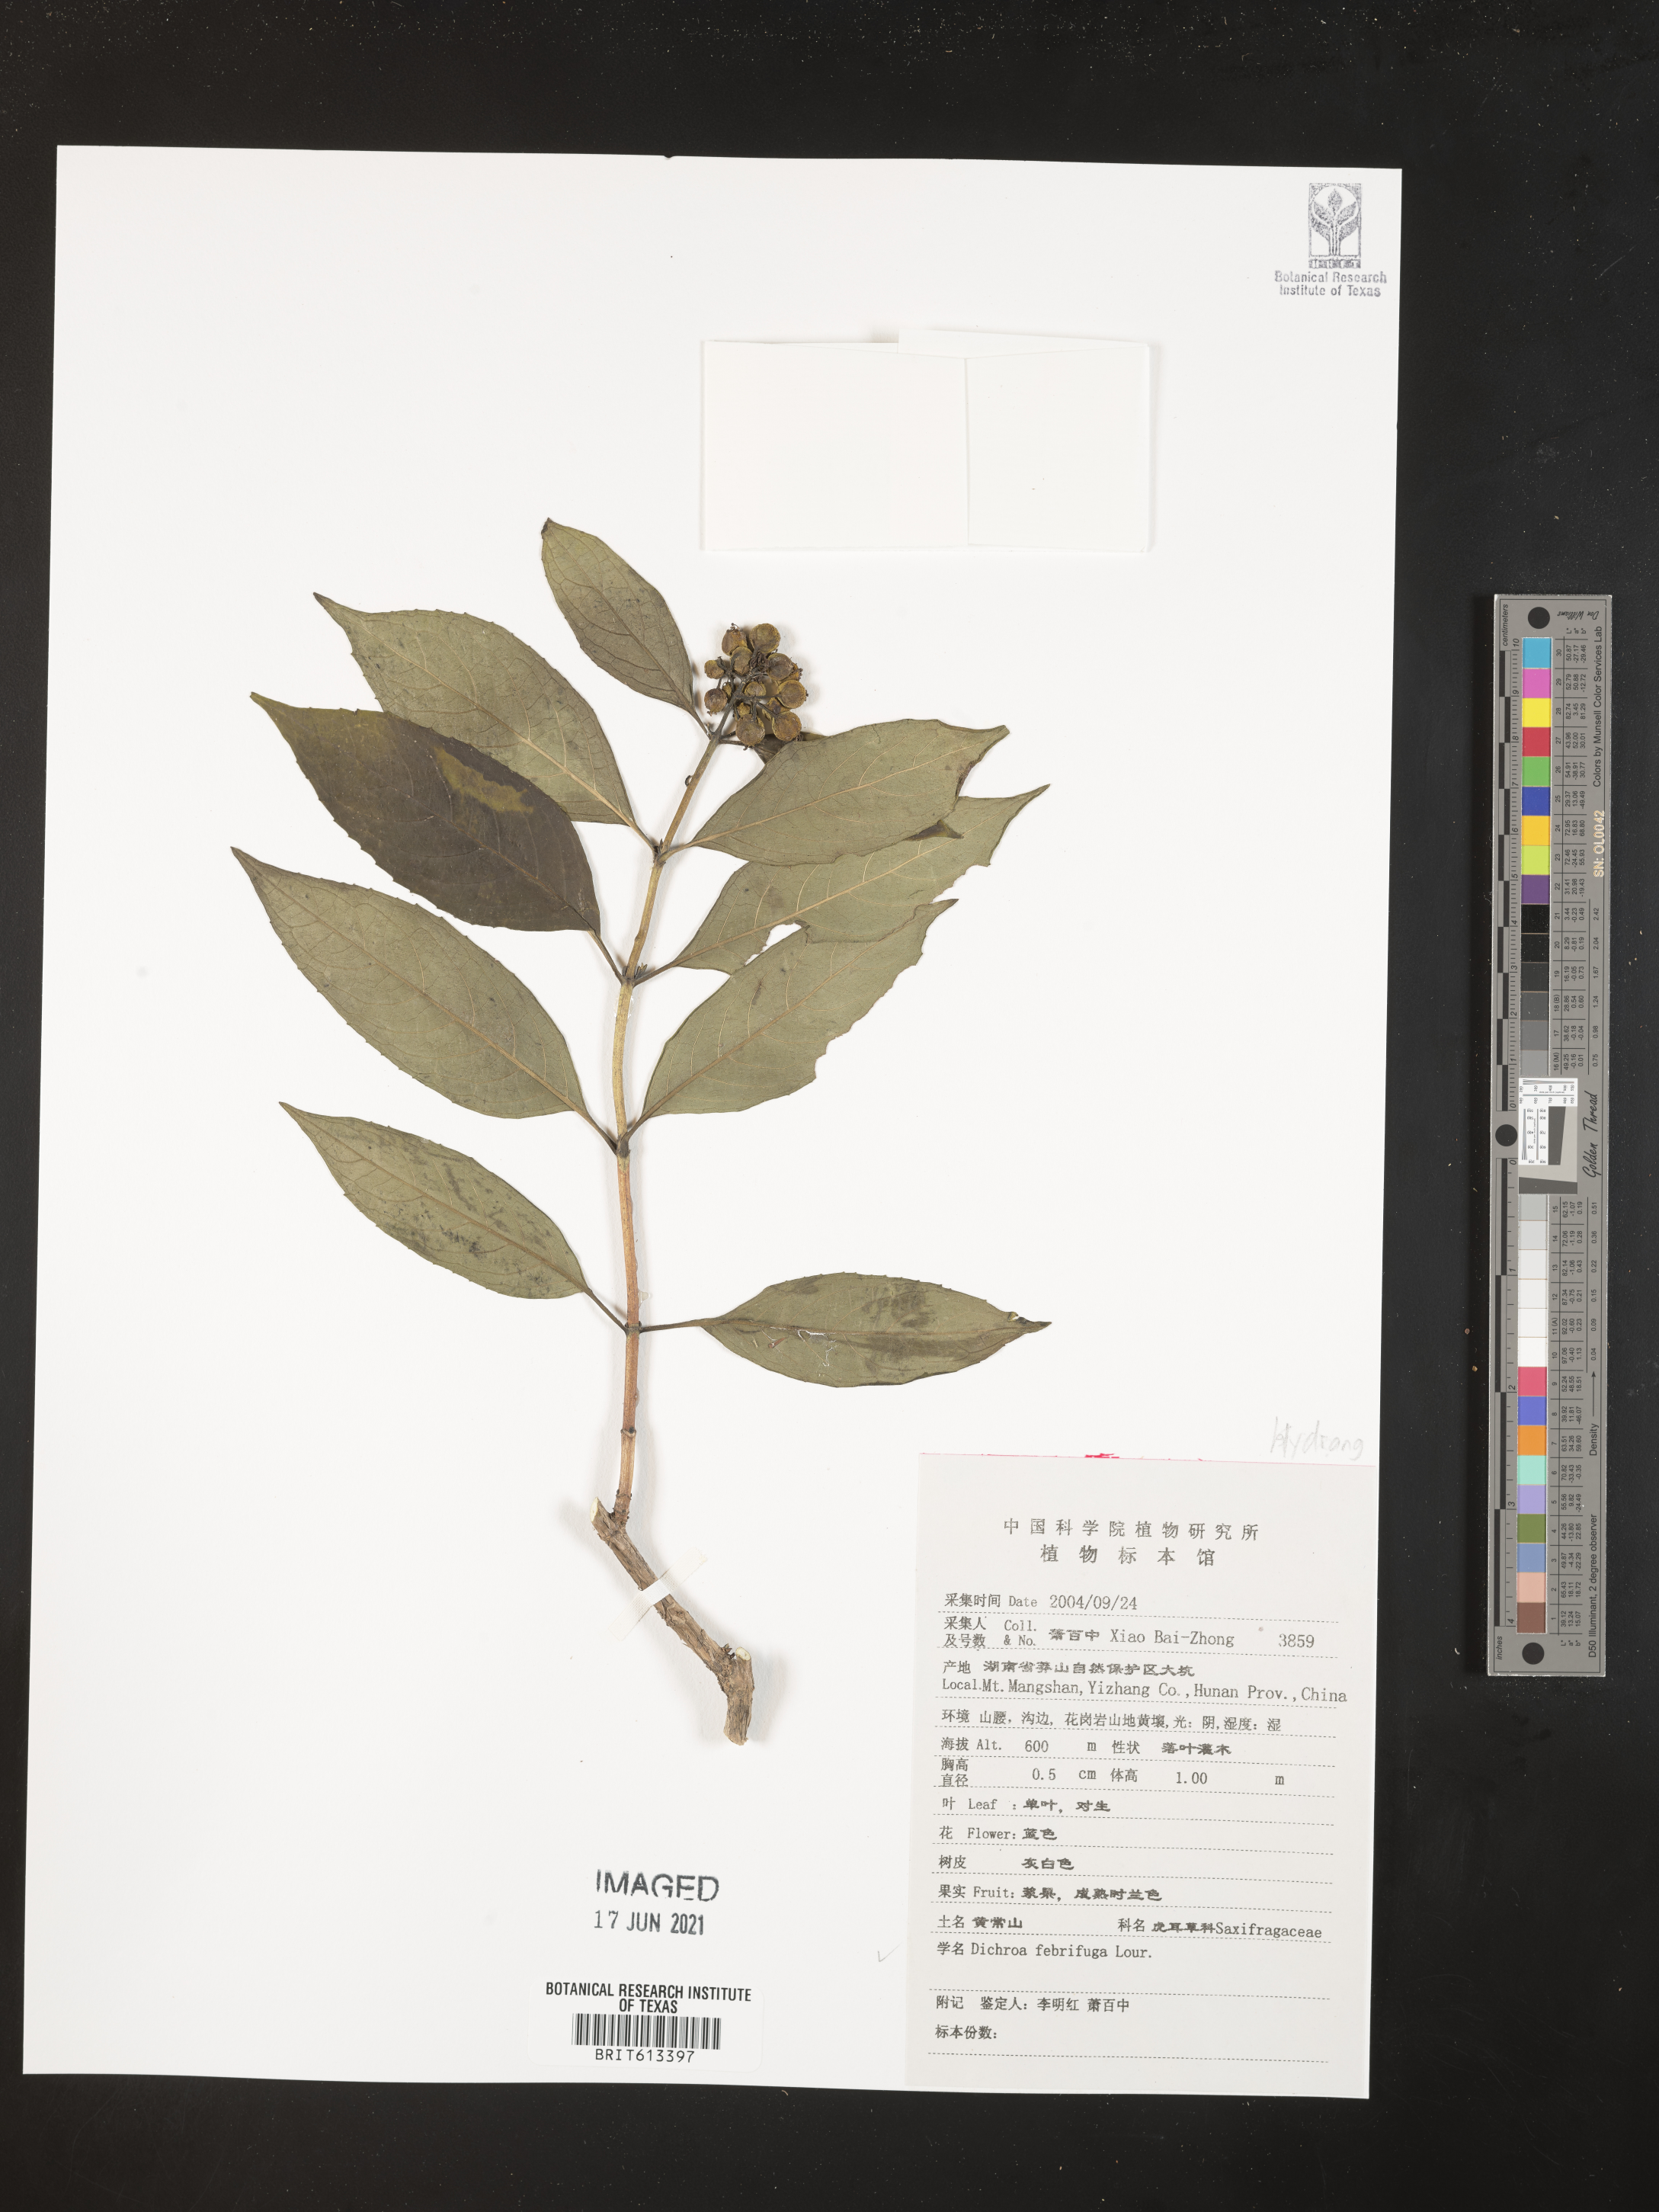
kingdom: Plantae
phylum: Tracheophyta
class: Magnoliopsida
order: Cornales
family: Hydrangeaceae
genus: Hydrangea
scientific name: Hydrangea febrifuga
